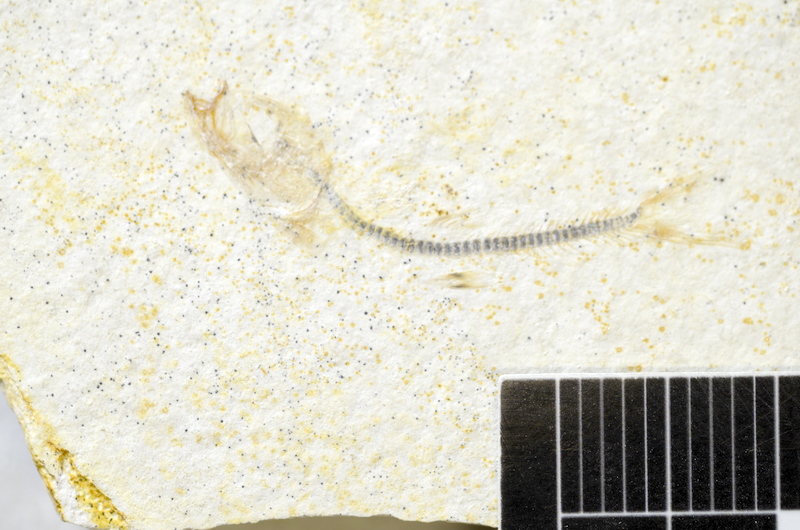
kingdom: Animalia
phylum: Chordata
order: Salmoniformes
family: Orthogonikleithridae
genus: Orthogonikleithrus
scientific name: Orthogonikleithrus hoelli
